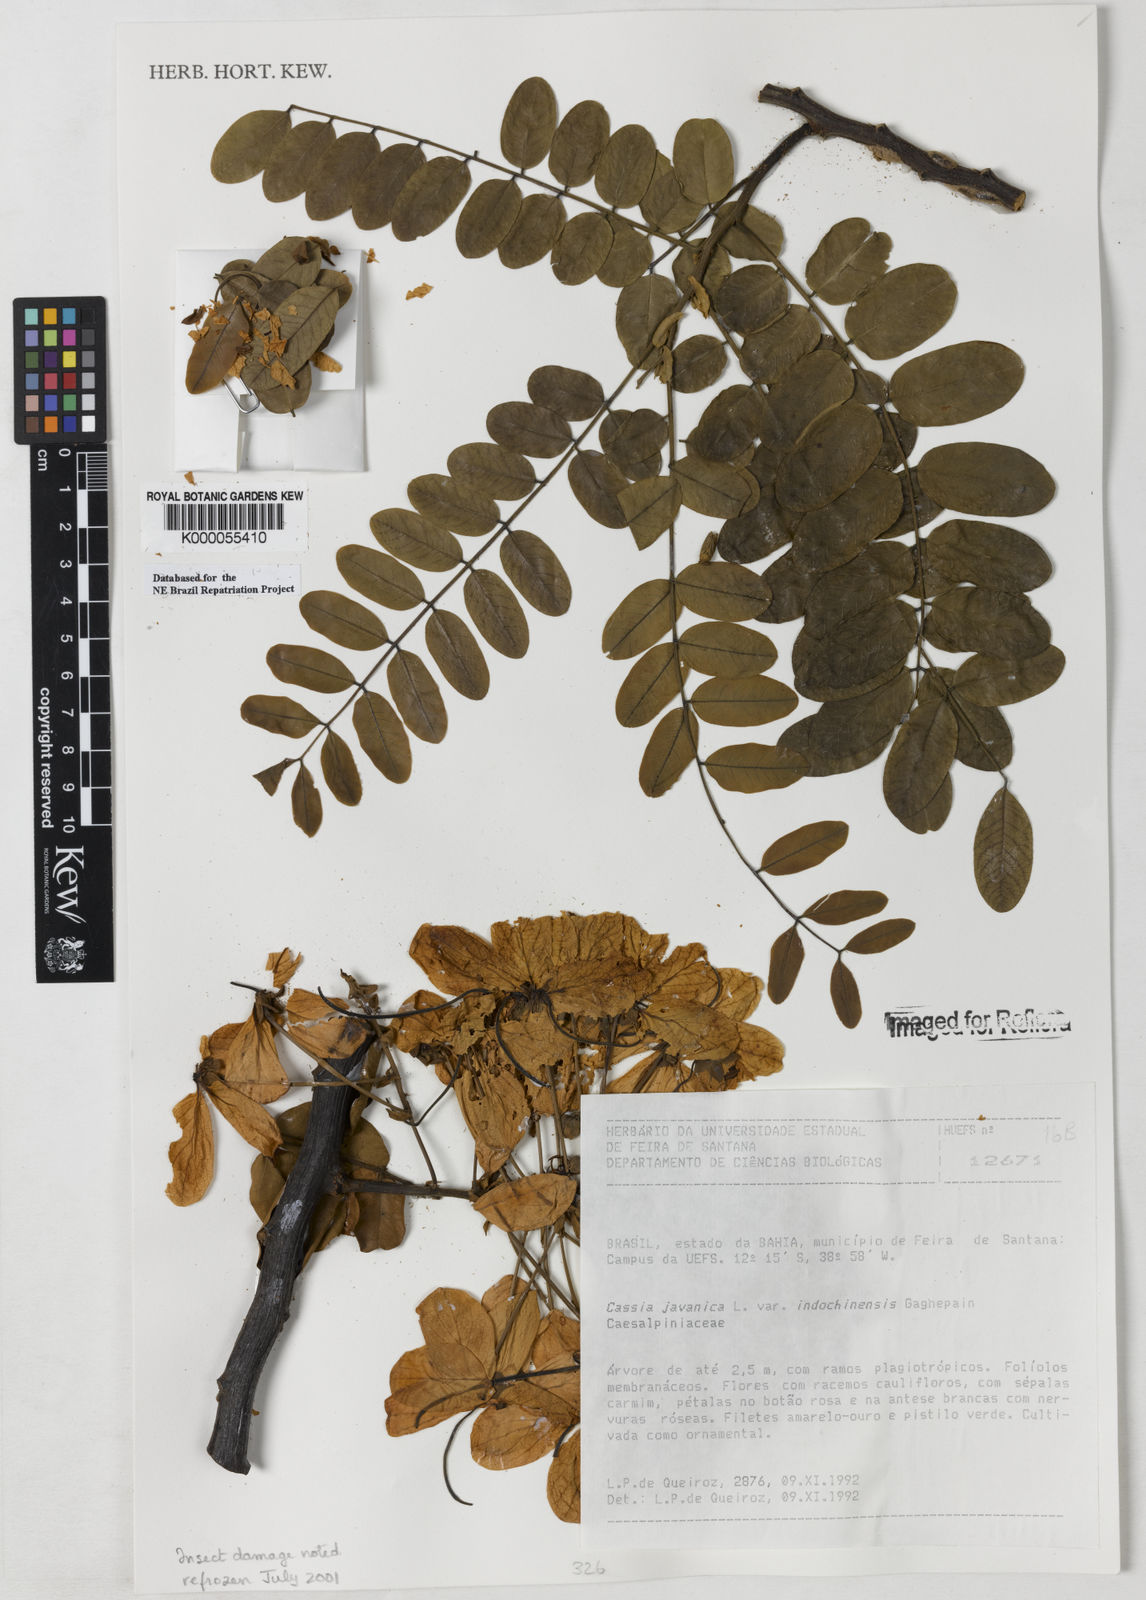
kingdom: Plantae
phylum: Tracheophyta
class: Magnoliopsida
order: Fabales
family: Fabaceae
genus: Cassia
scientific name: Cassia javanica
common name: Apple blossom
